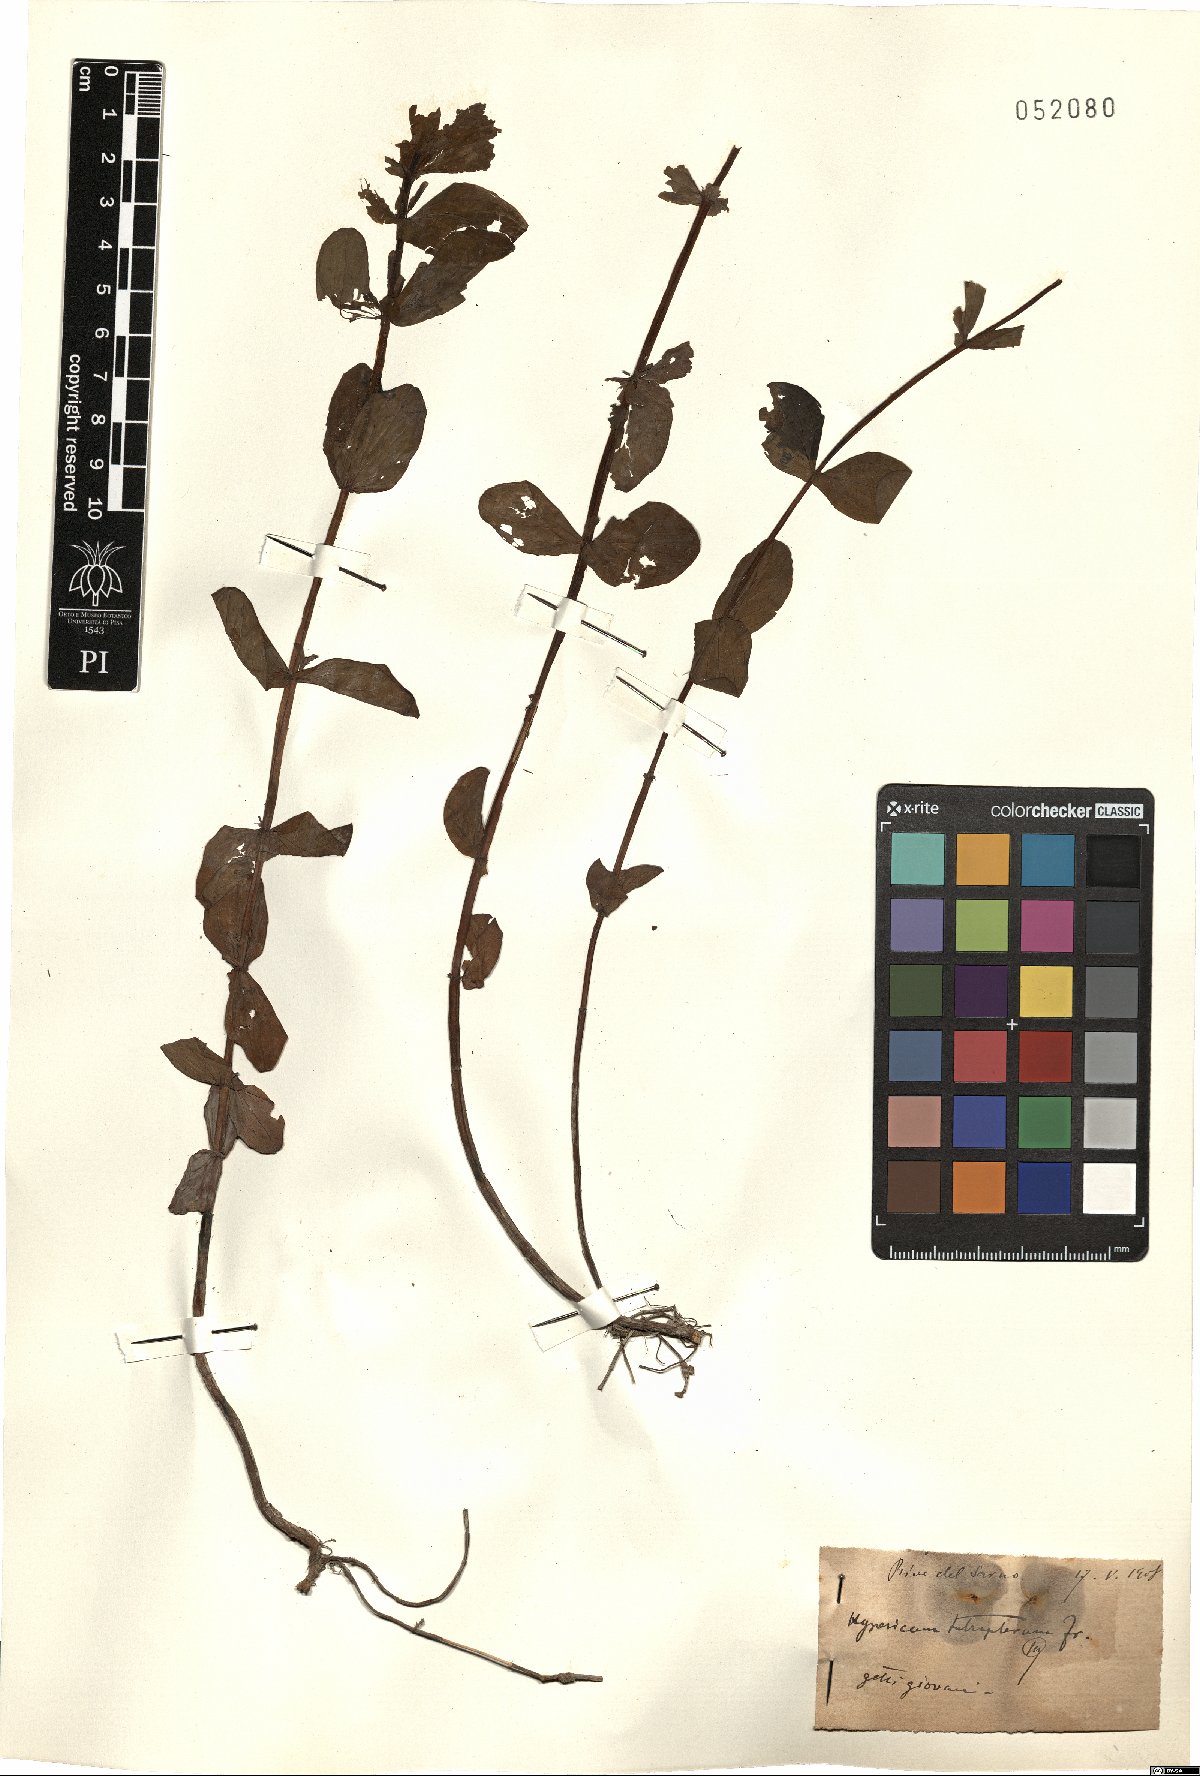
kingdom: Plantae
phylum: Tracheophyta
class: Magnoliopsida
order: Malpighiales
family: Hypericaceae
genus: Hypericum
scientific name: Hypericum tetrapterum
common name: Square-stalked st. john's-wort
